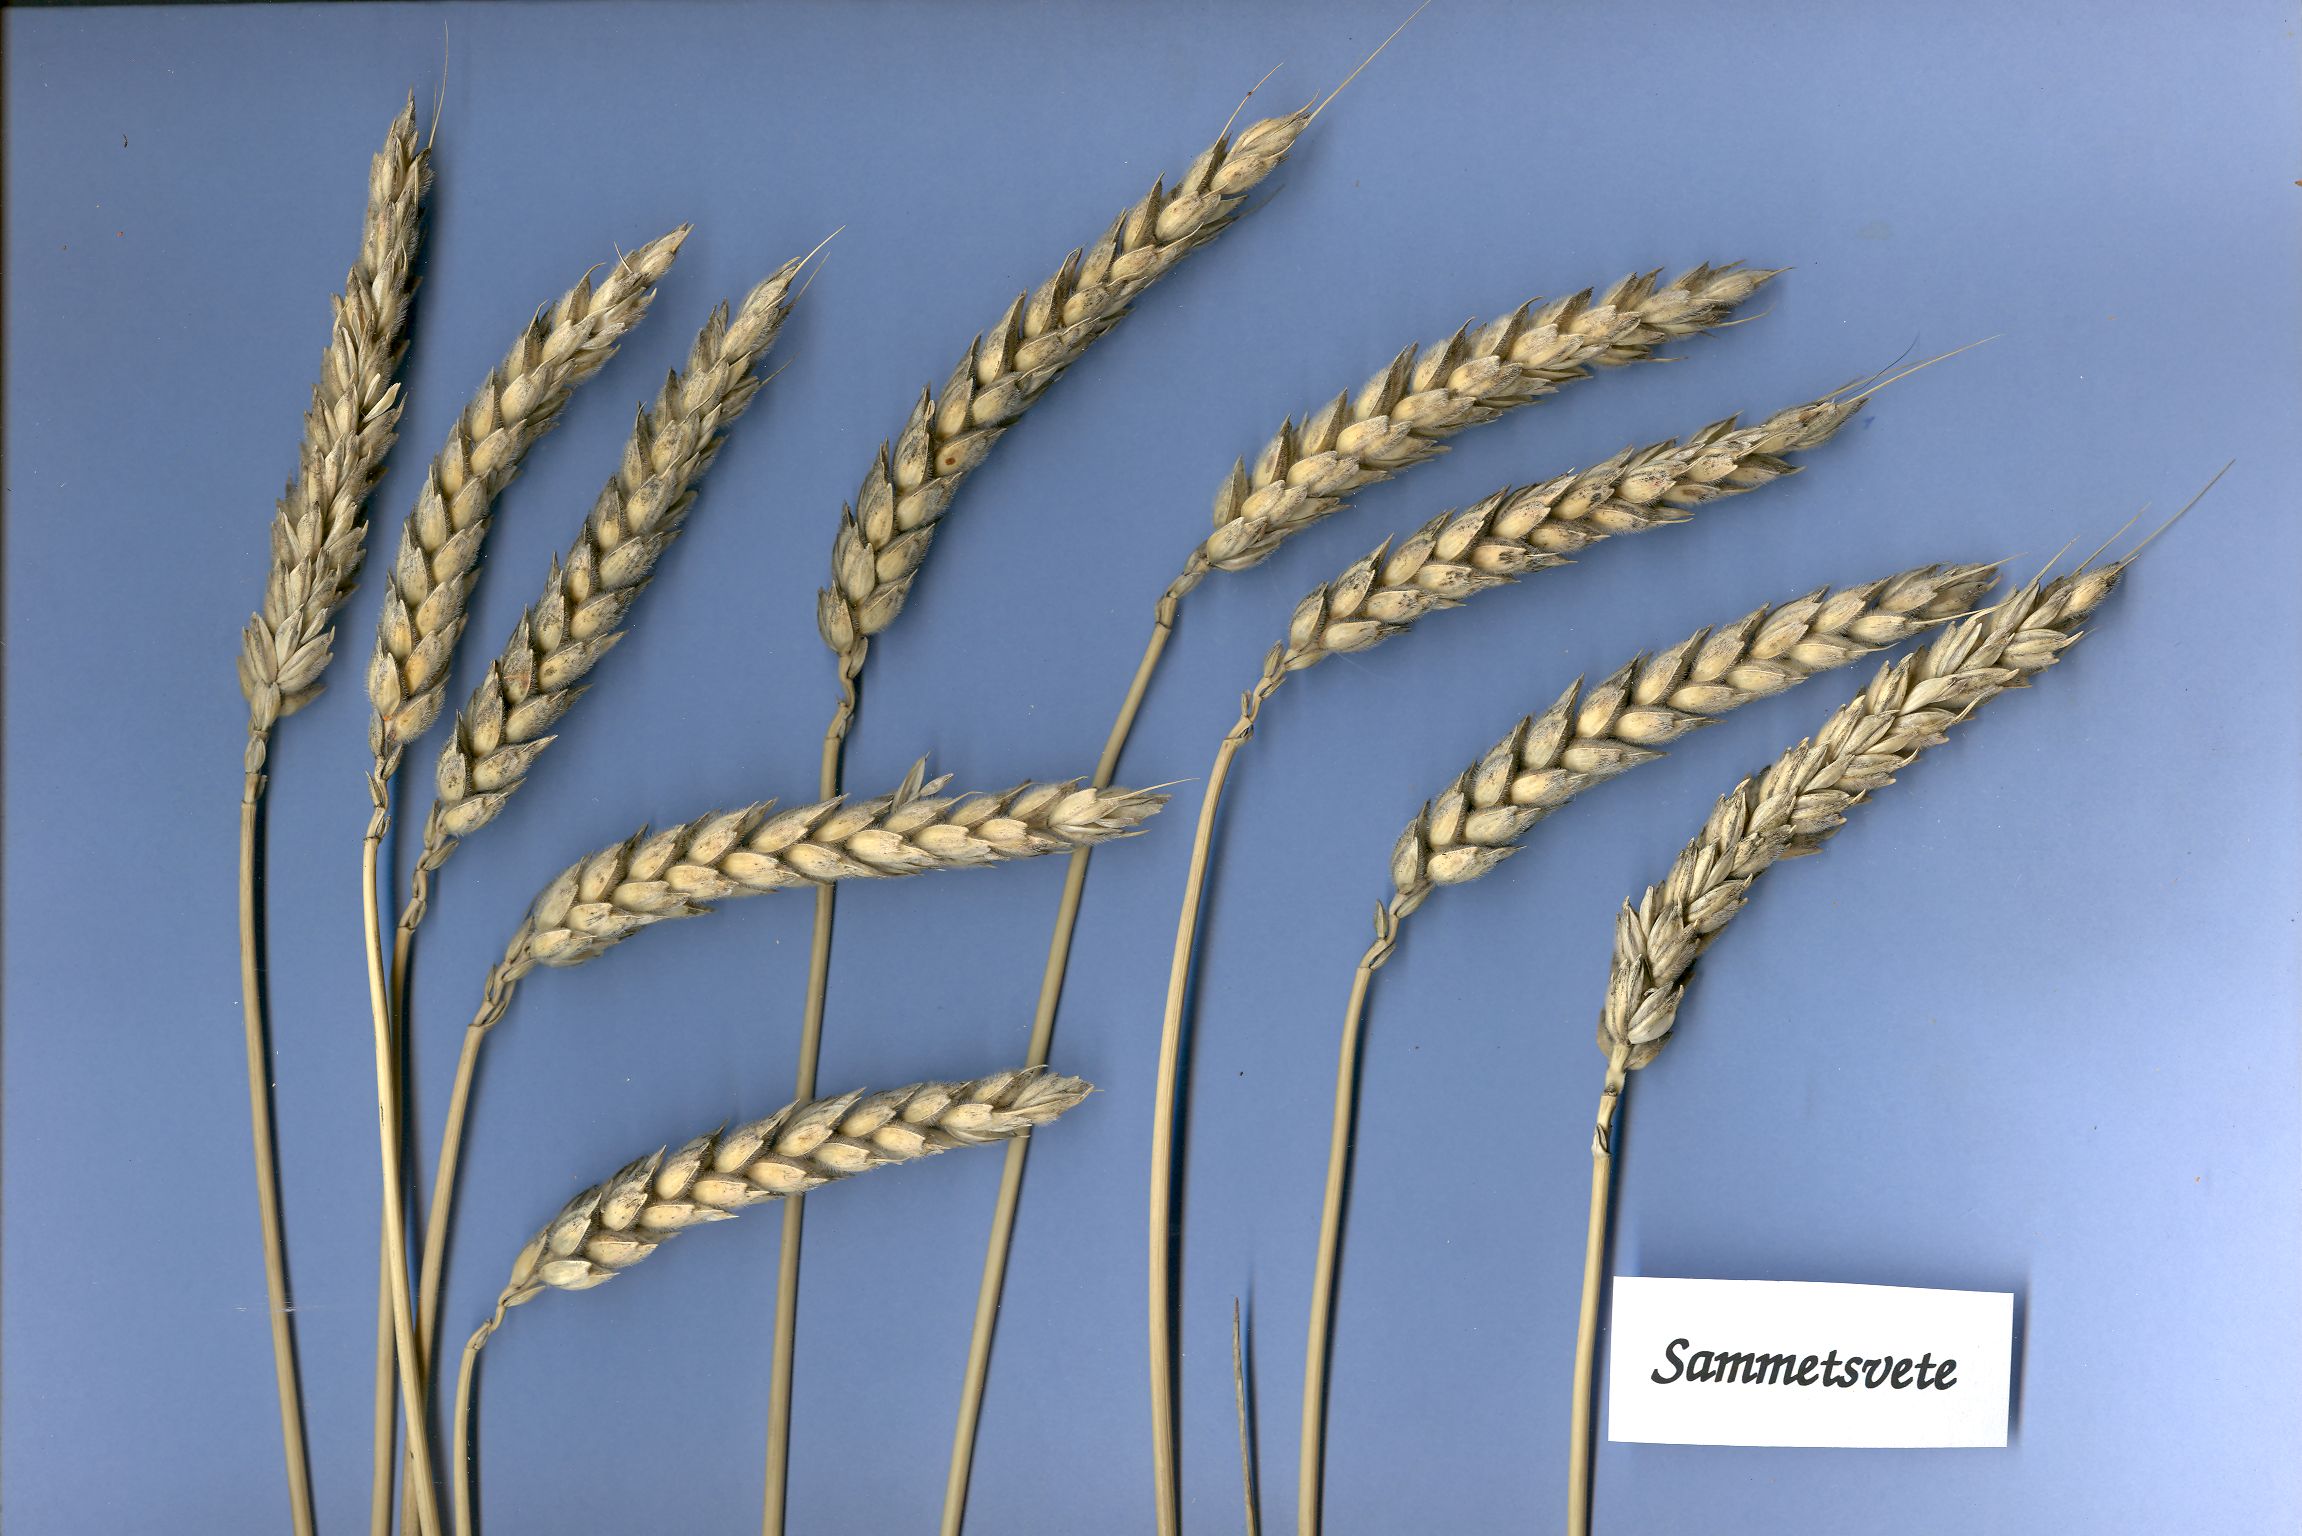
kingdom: Plantae
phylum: Tracheophyta
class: Liliopsida
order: Poales
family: Poaceae
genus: Triticum
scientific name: Triticum aestivum
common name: Common wheat
